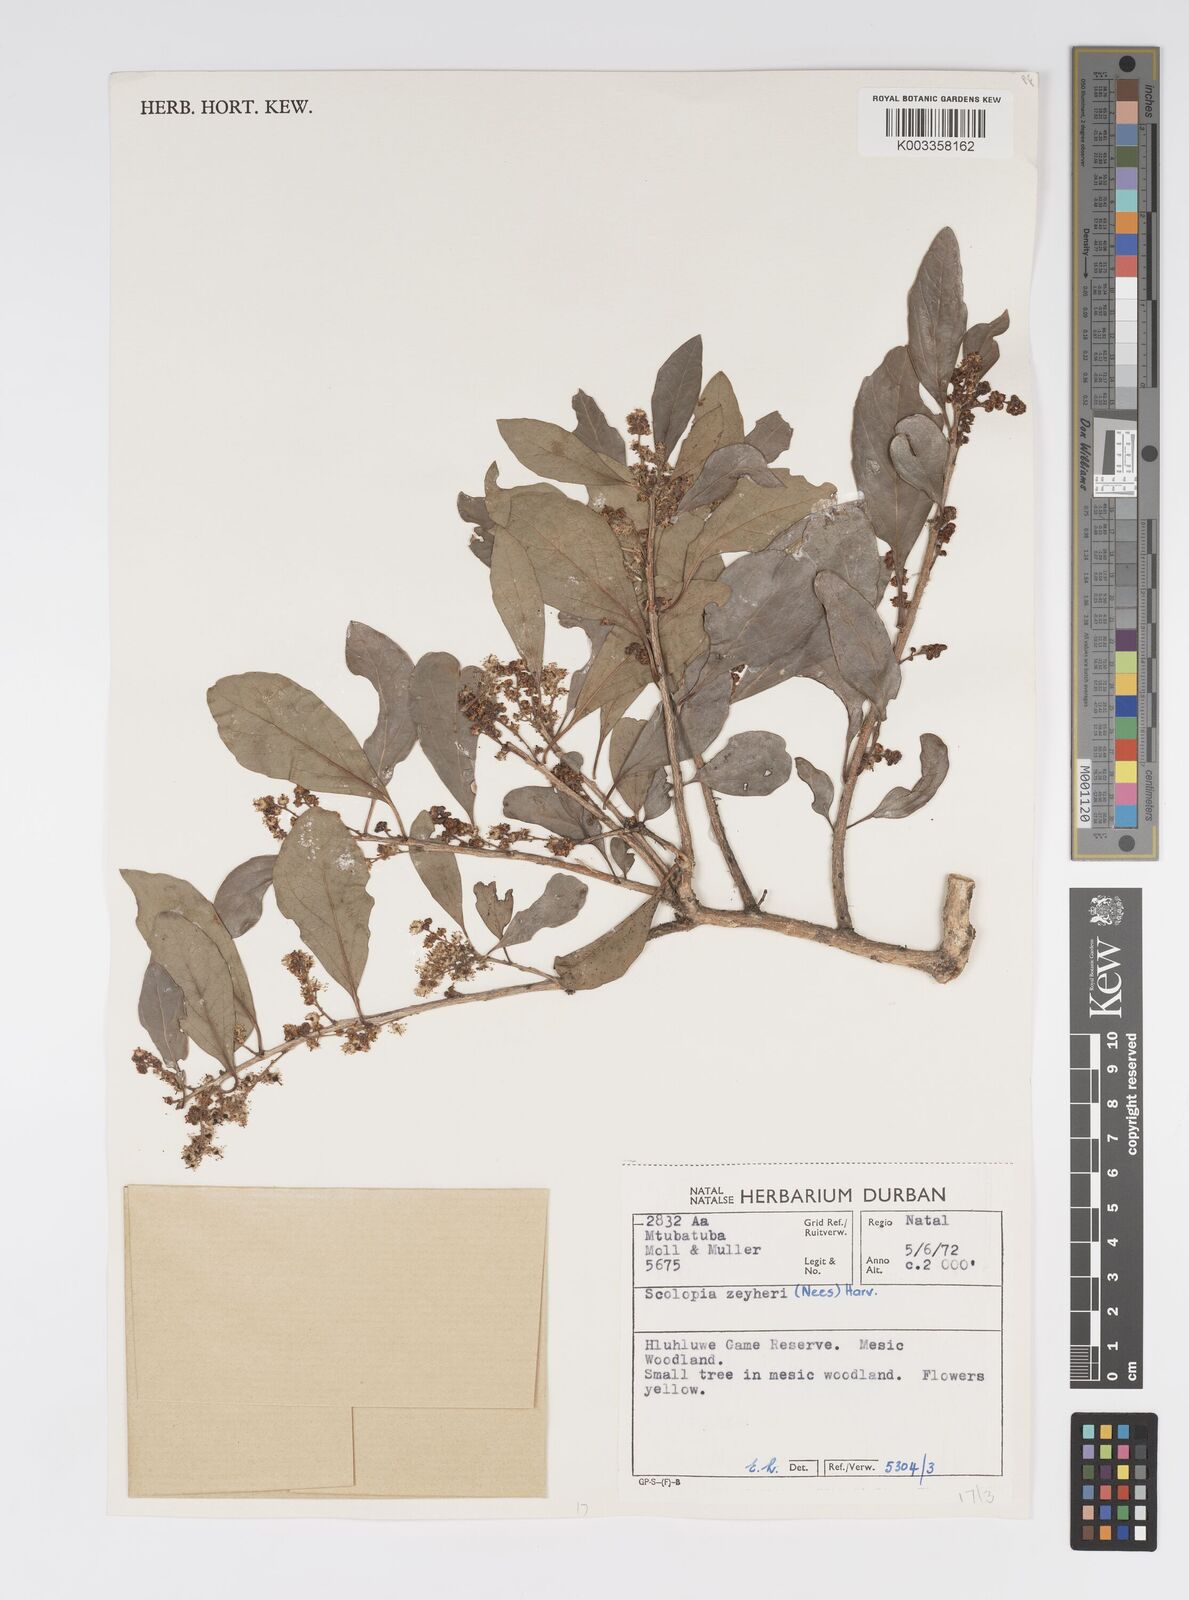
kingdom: Plantae
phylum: Tracheophyta
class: Magnoliopsida
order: Malpighiales
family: Salicaceae
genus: Scolopia
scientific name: Scolopia zeyheri
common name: Thorn pear
